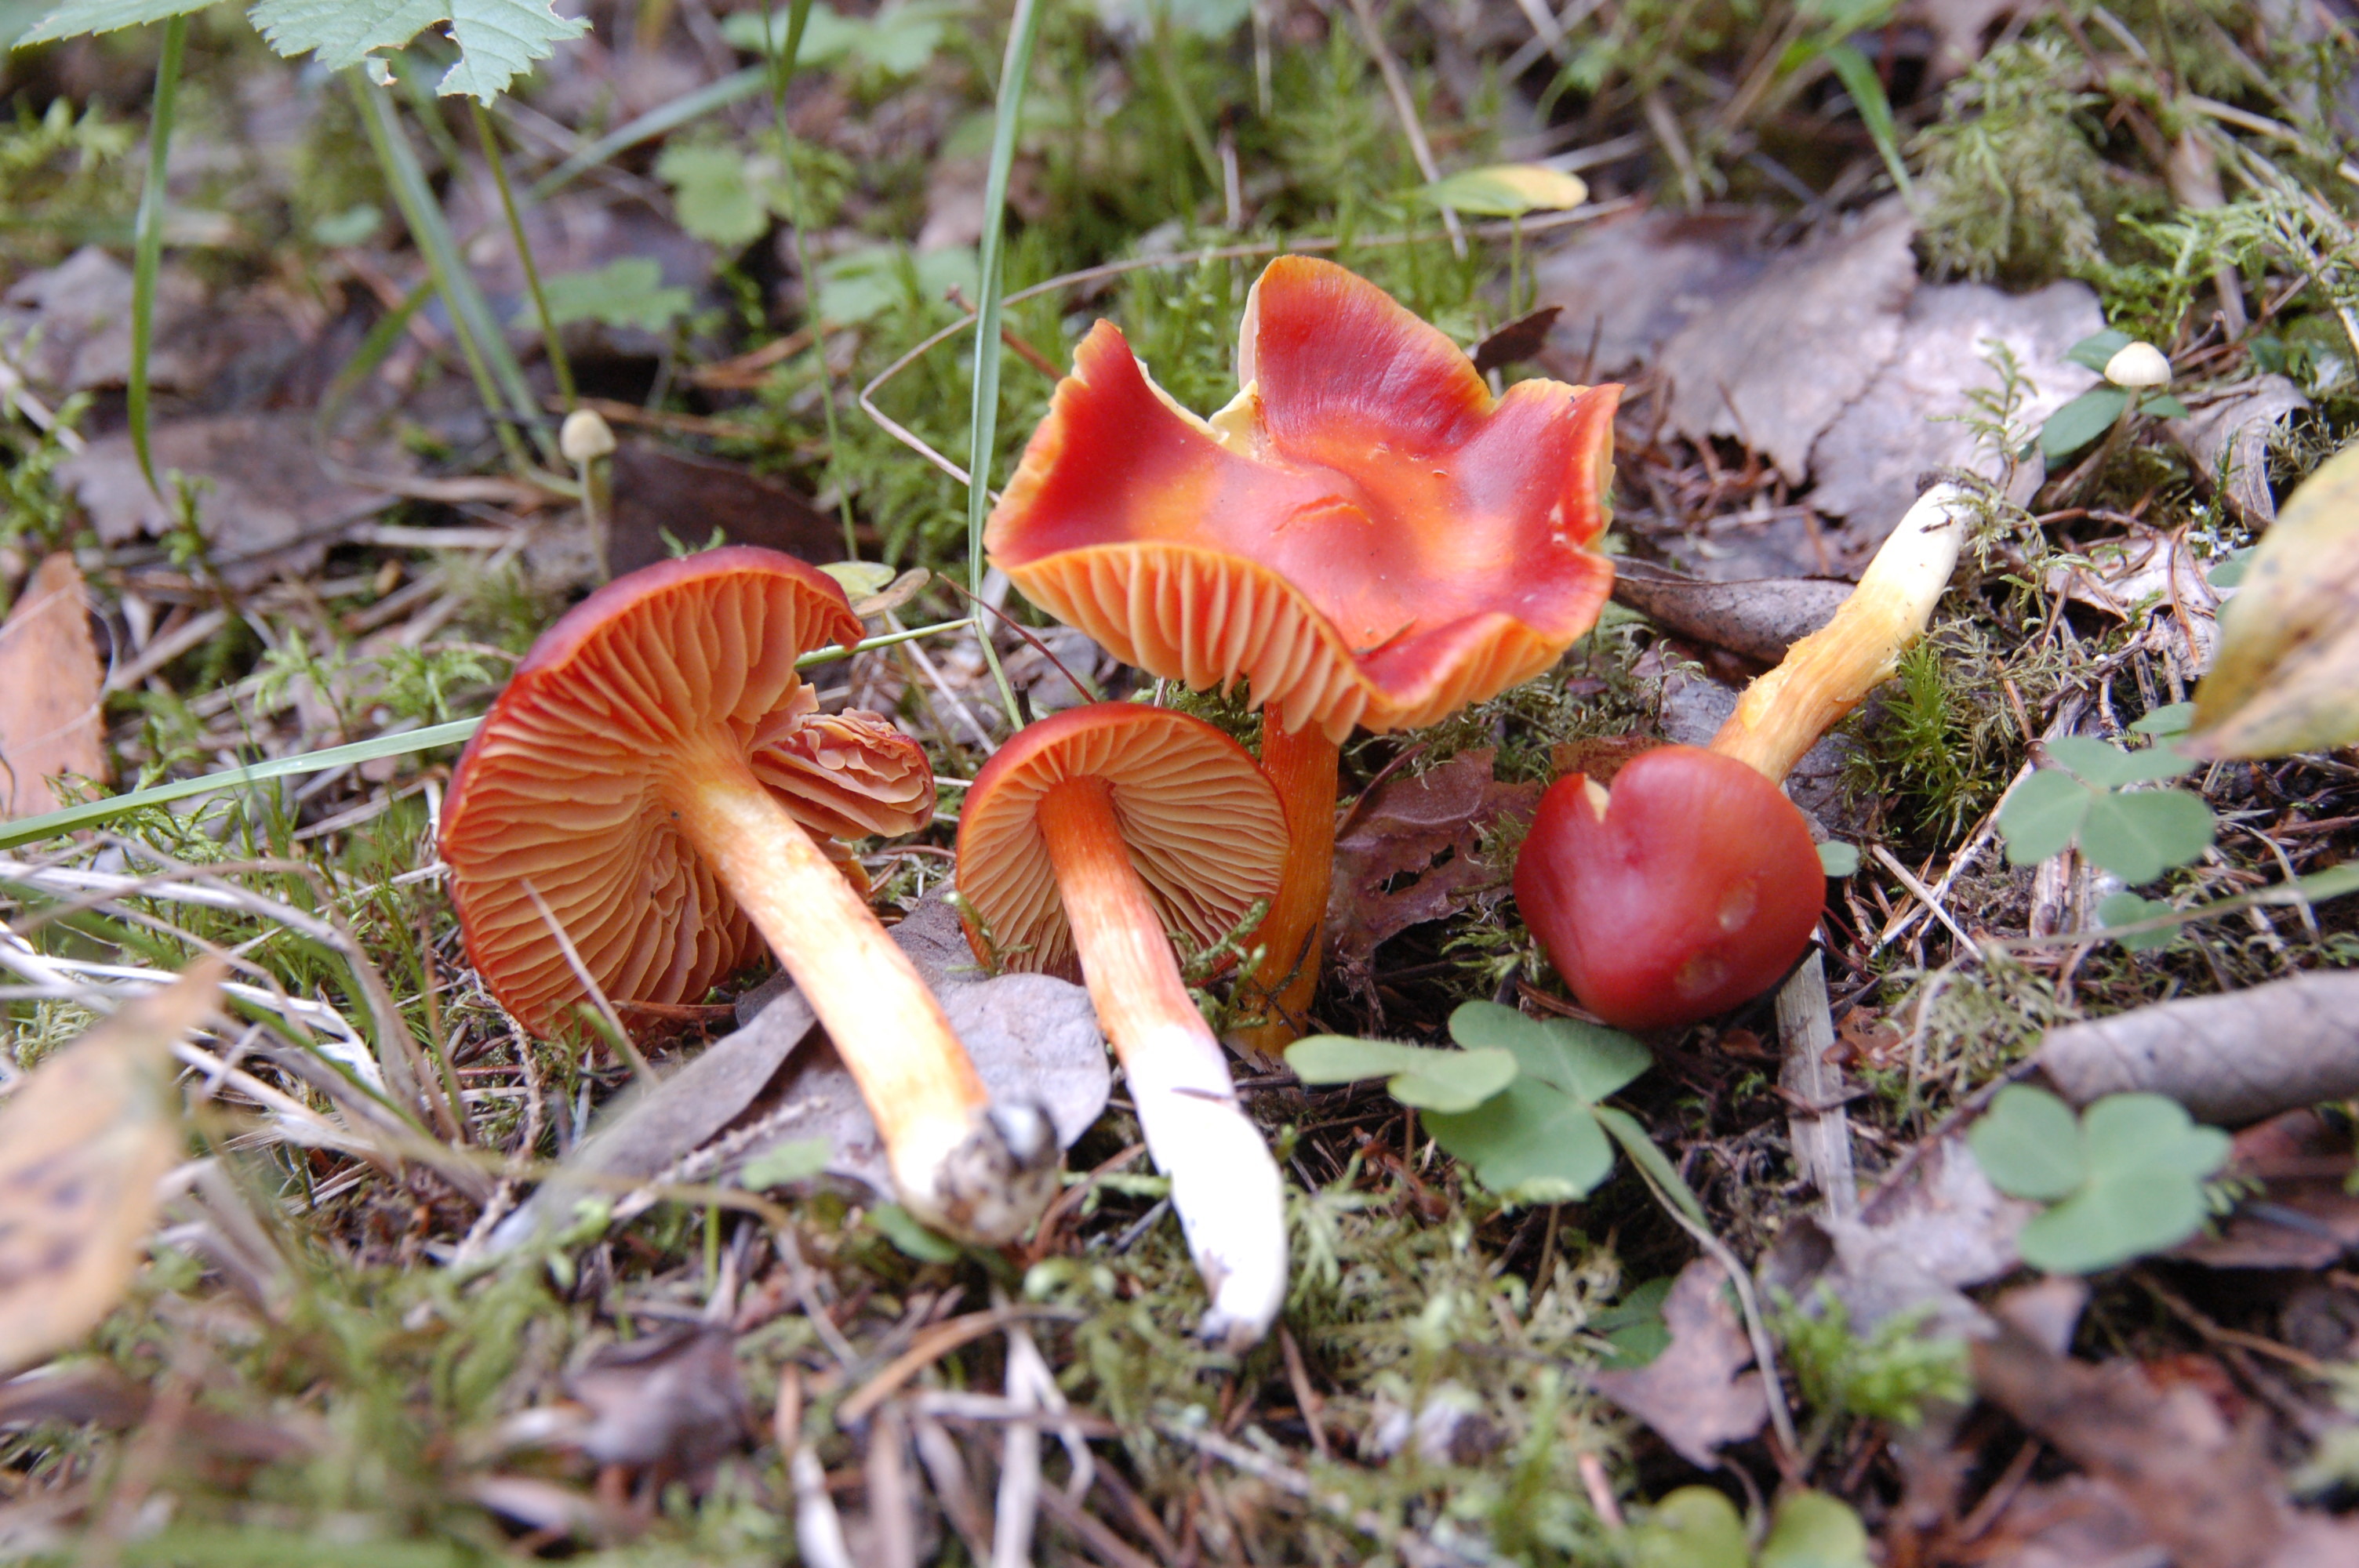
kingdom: Fungi
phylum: Basidiomycota
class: Agaricomycetes
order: Agaricales
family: Hygrophoraceae
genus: Hygrocybe
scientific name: Hygrocybe punicea
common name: Crimson waxcap
